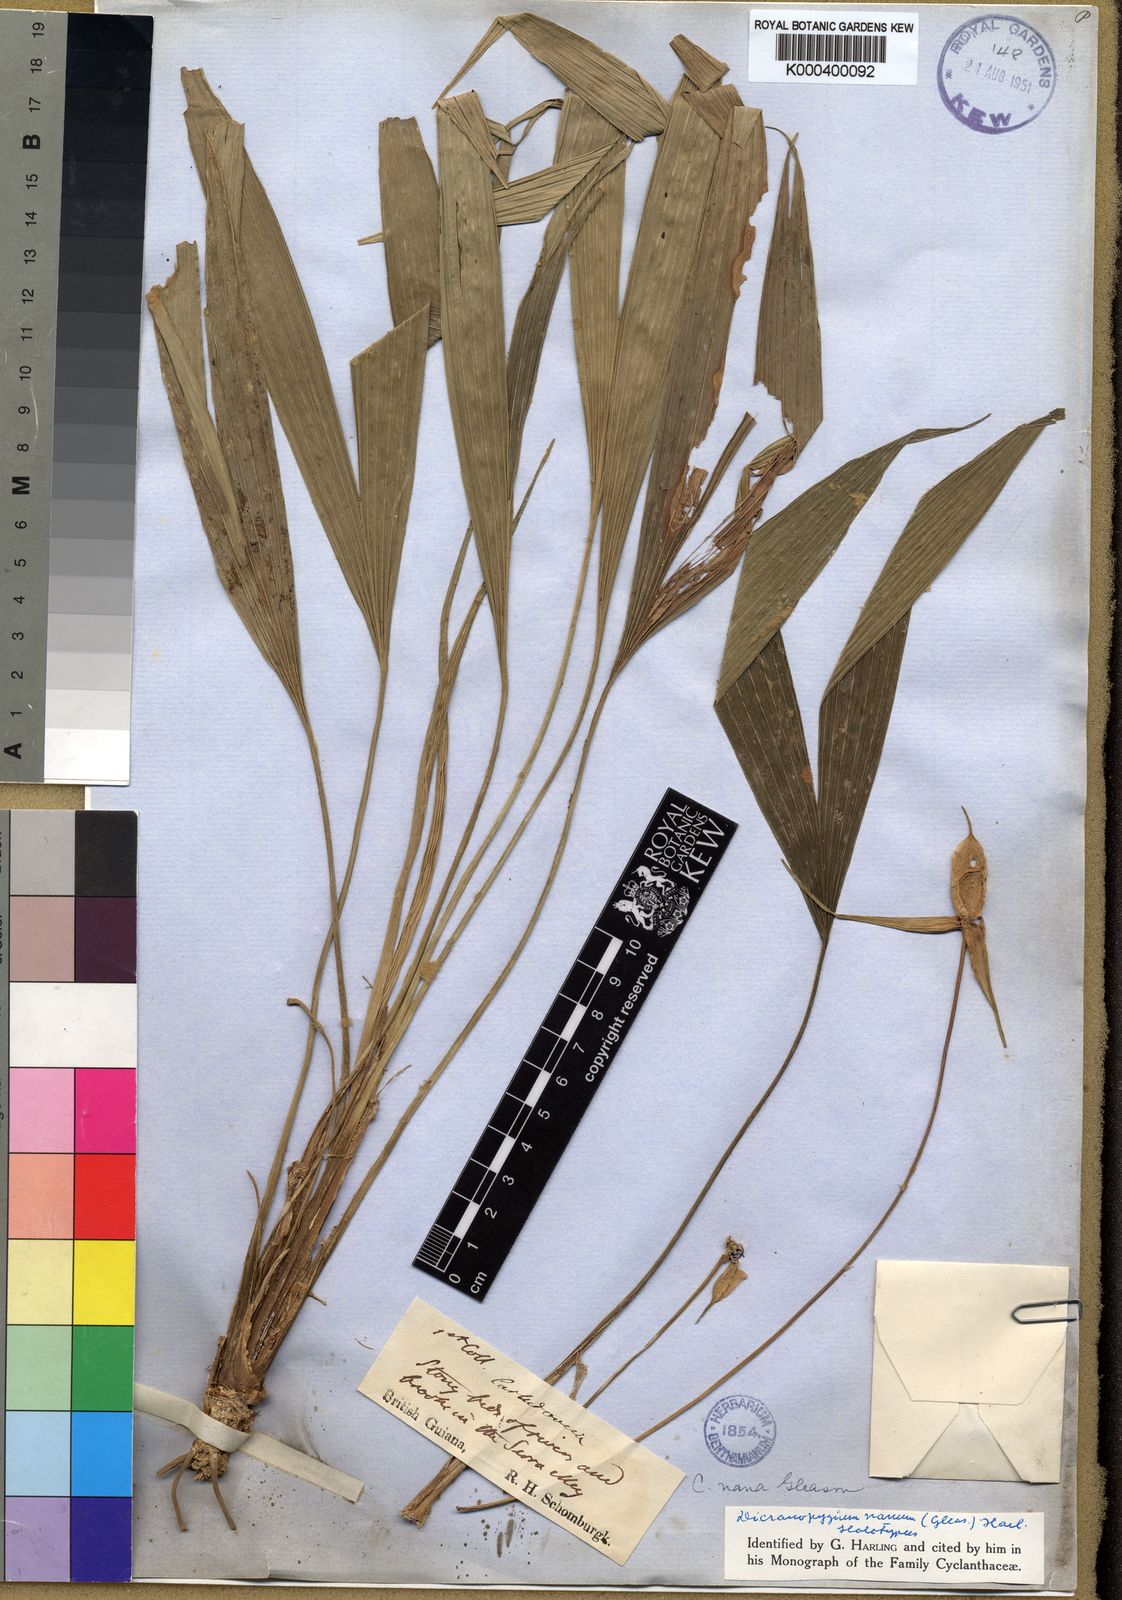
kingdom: Plantae
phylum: Tracheophyta
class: Liliopsida
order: Pandanales
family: Cyclanthaceae
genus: Dicranopygium
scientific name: Dicranopygium nanum
